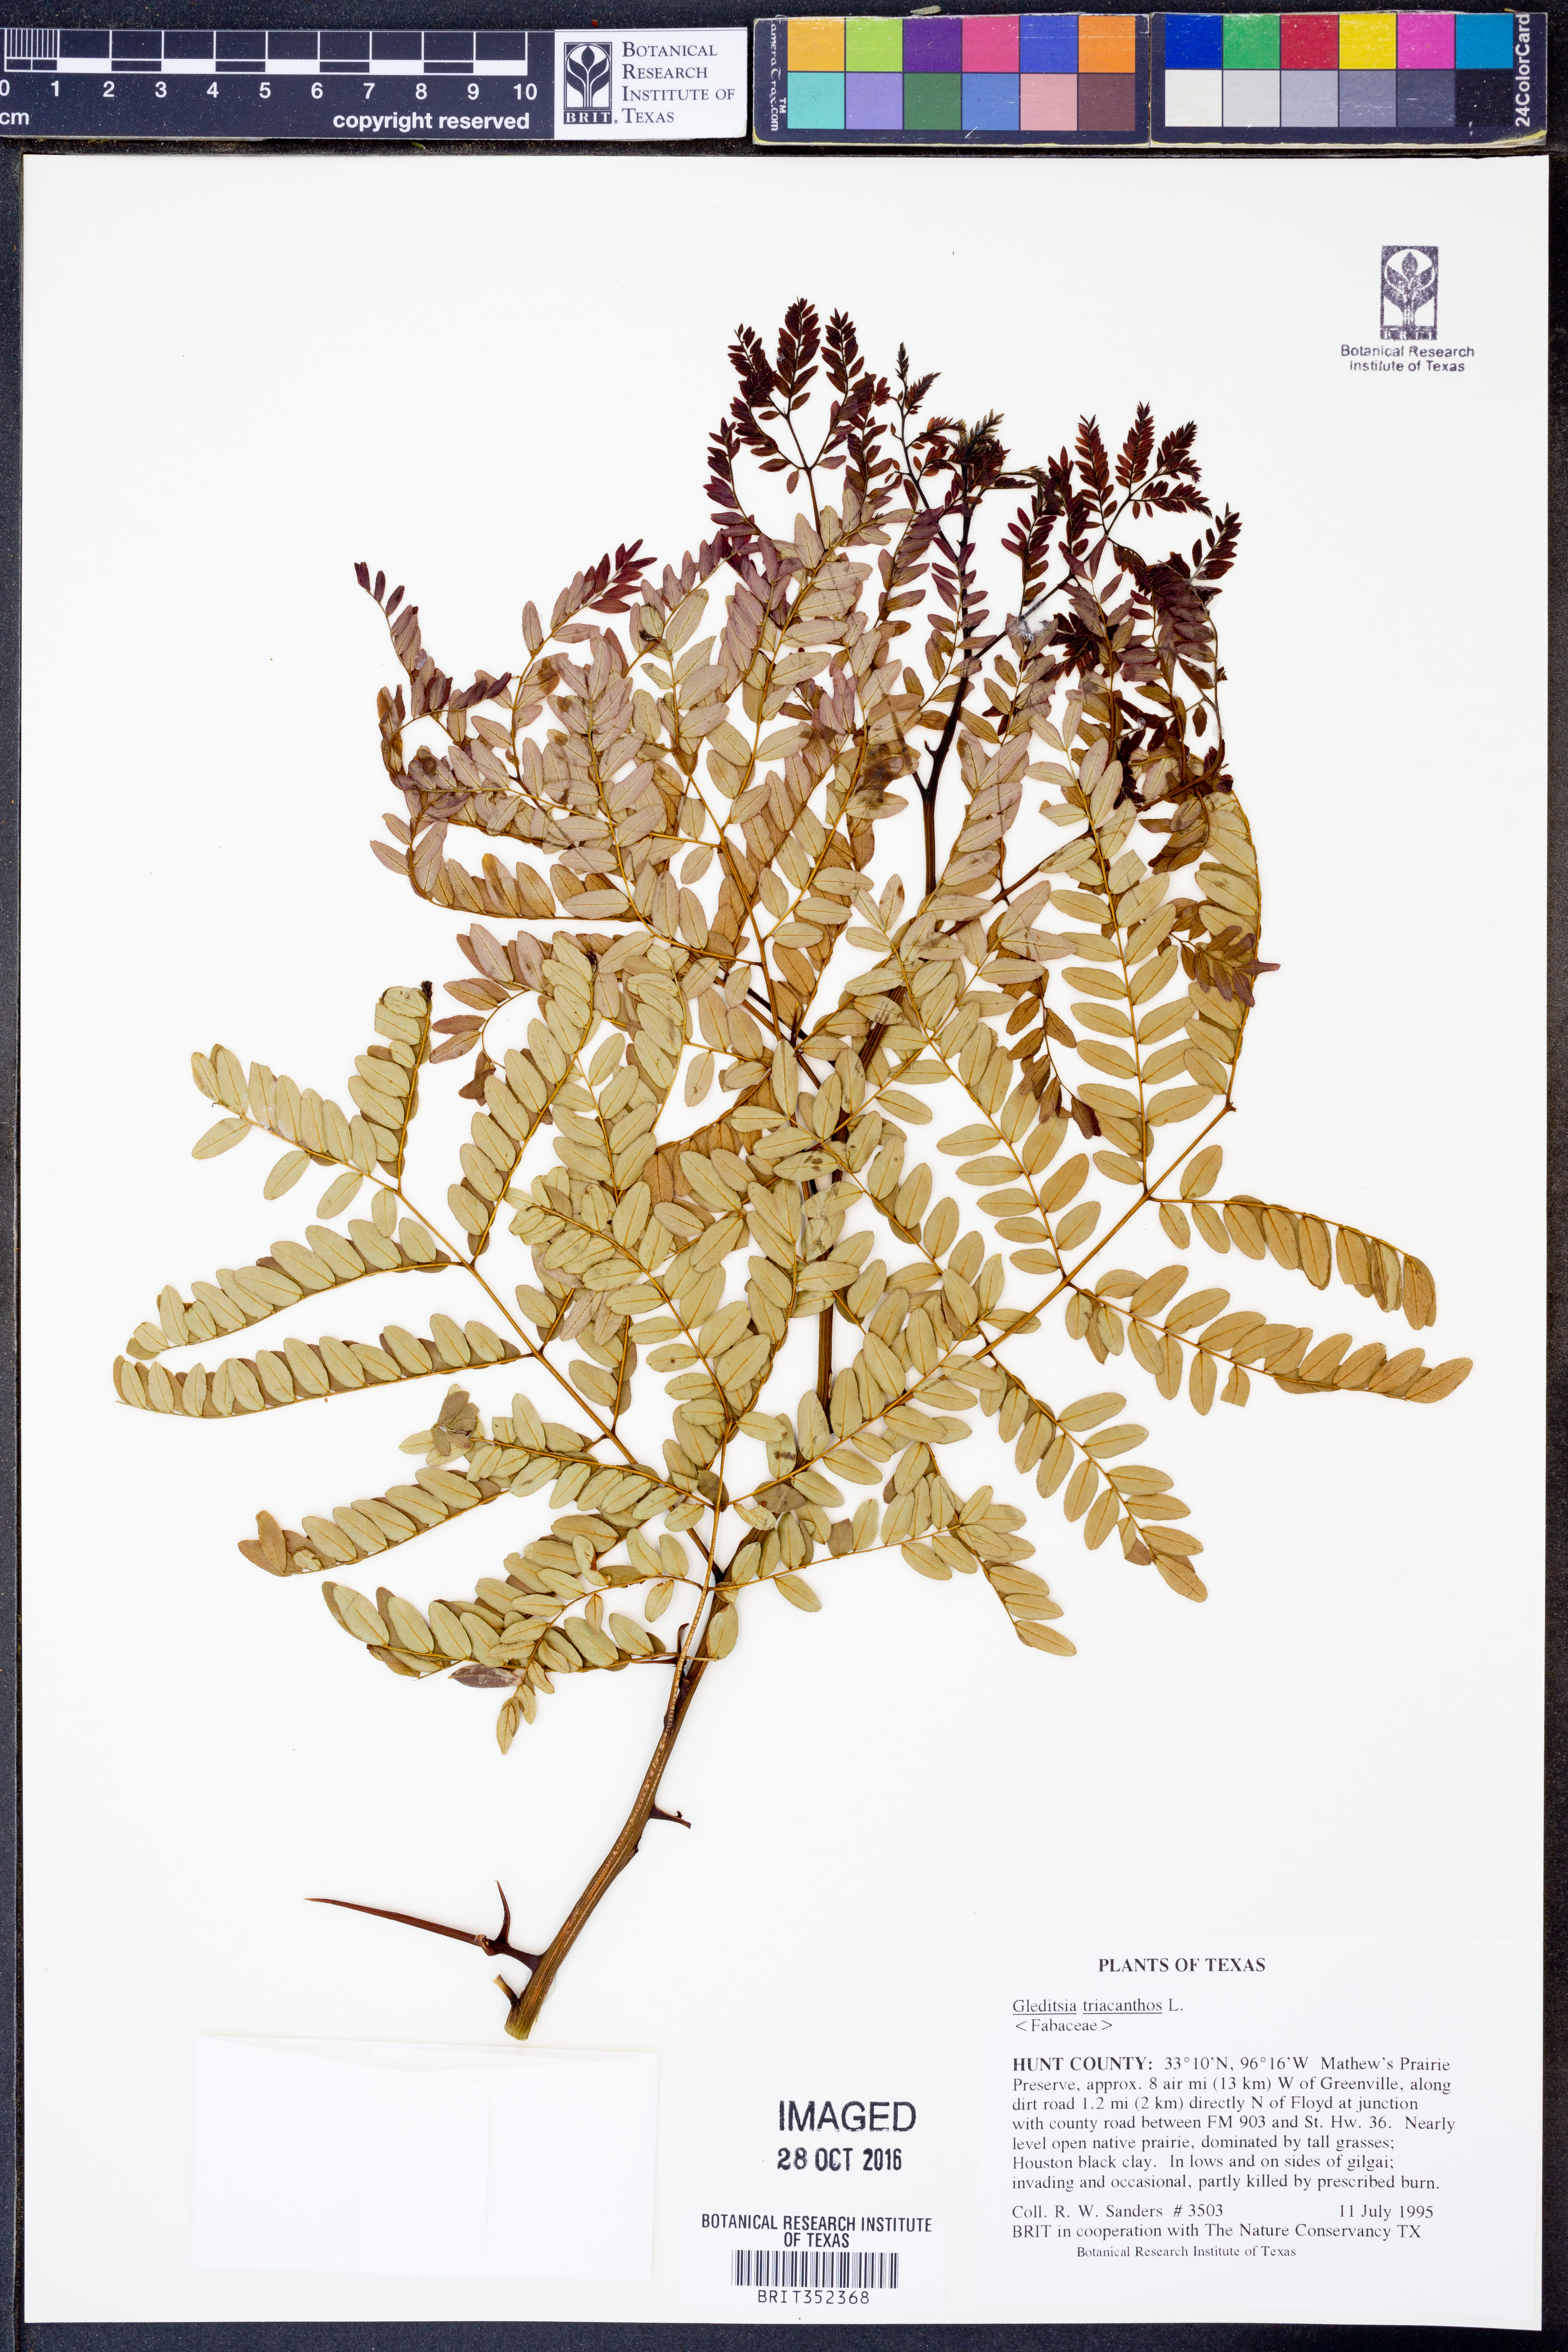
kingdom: Plantae
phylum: Tracheophyta
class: Magnoliopsida
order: Fabales
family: Fabaceae
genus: Gleditsia
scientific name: Gleditsia triacanthos
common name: Common honeylocust
